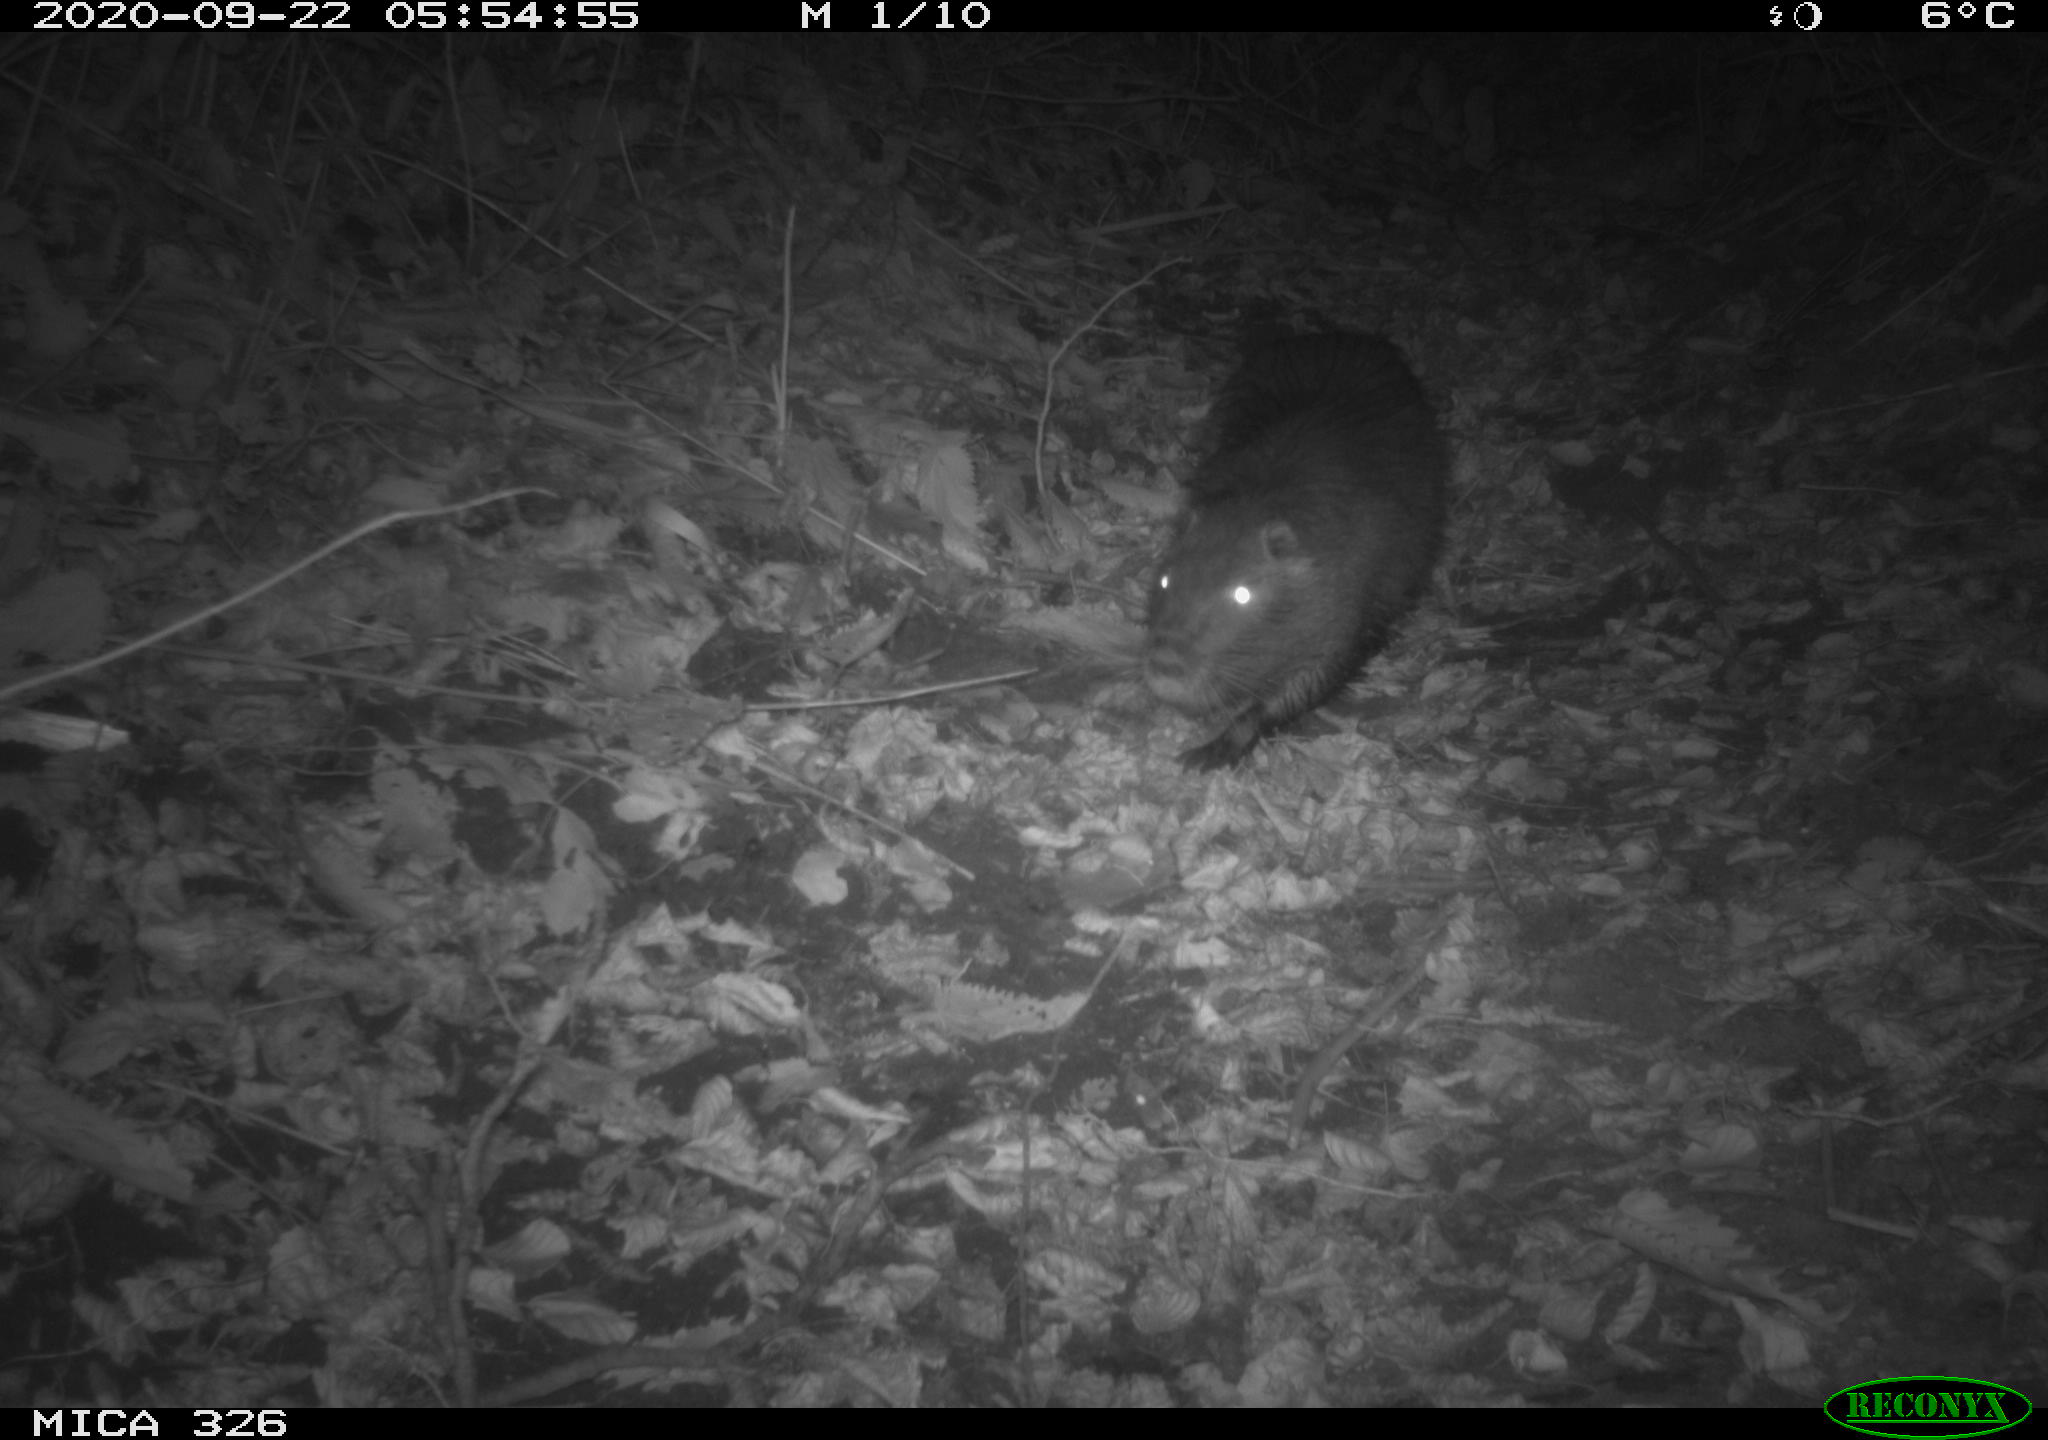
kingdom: Animalia
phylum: Chordata
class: Mammalia
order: Rodentia
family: Myocastoridae
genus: Myocastor
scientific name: Myocastor coypus
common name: Coypu
